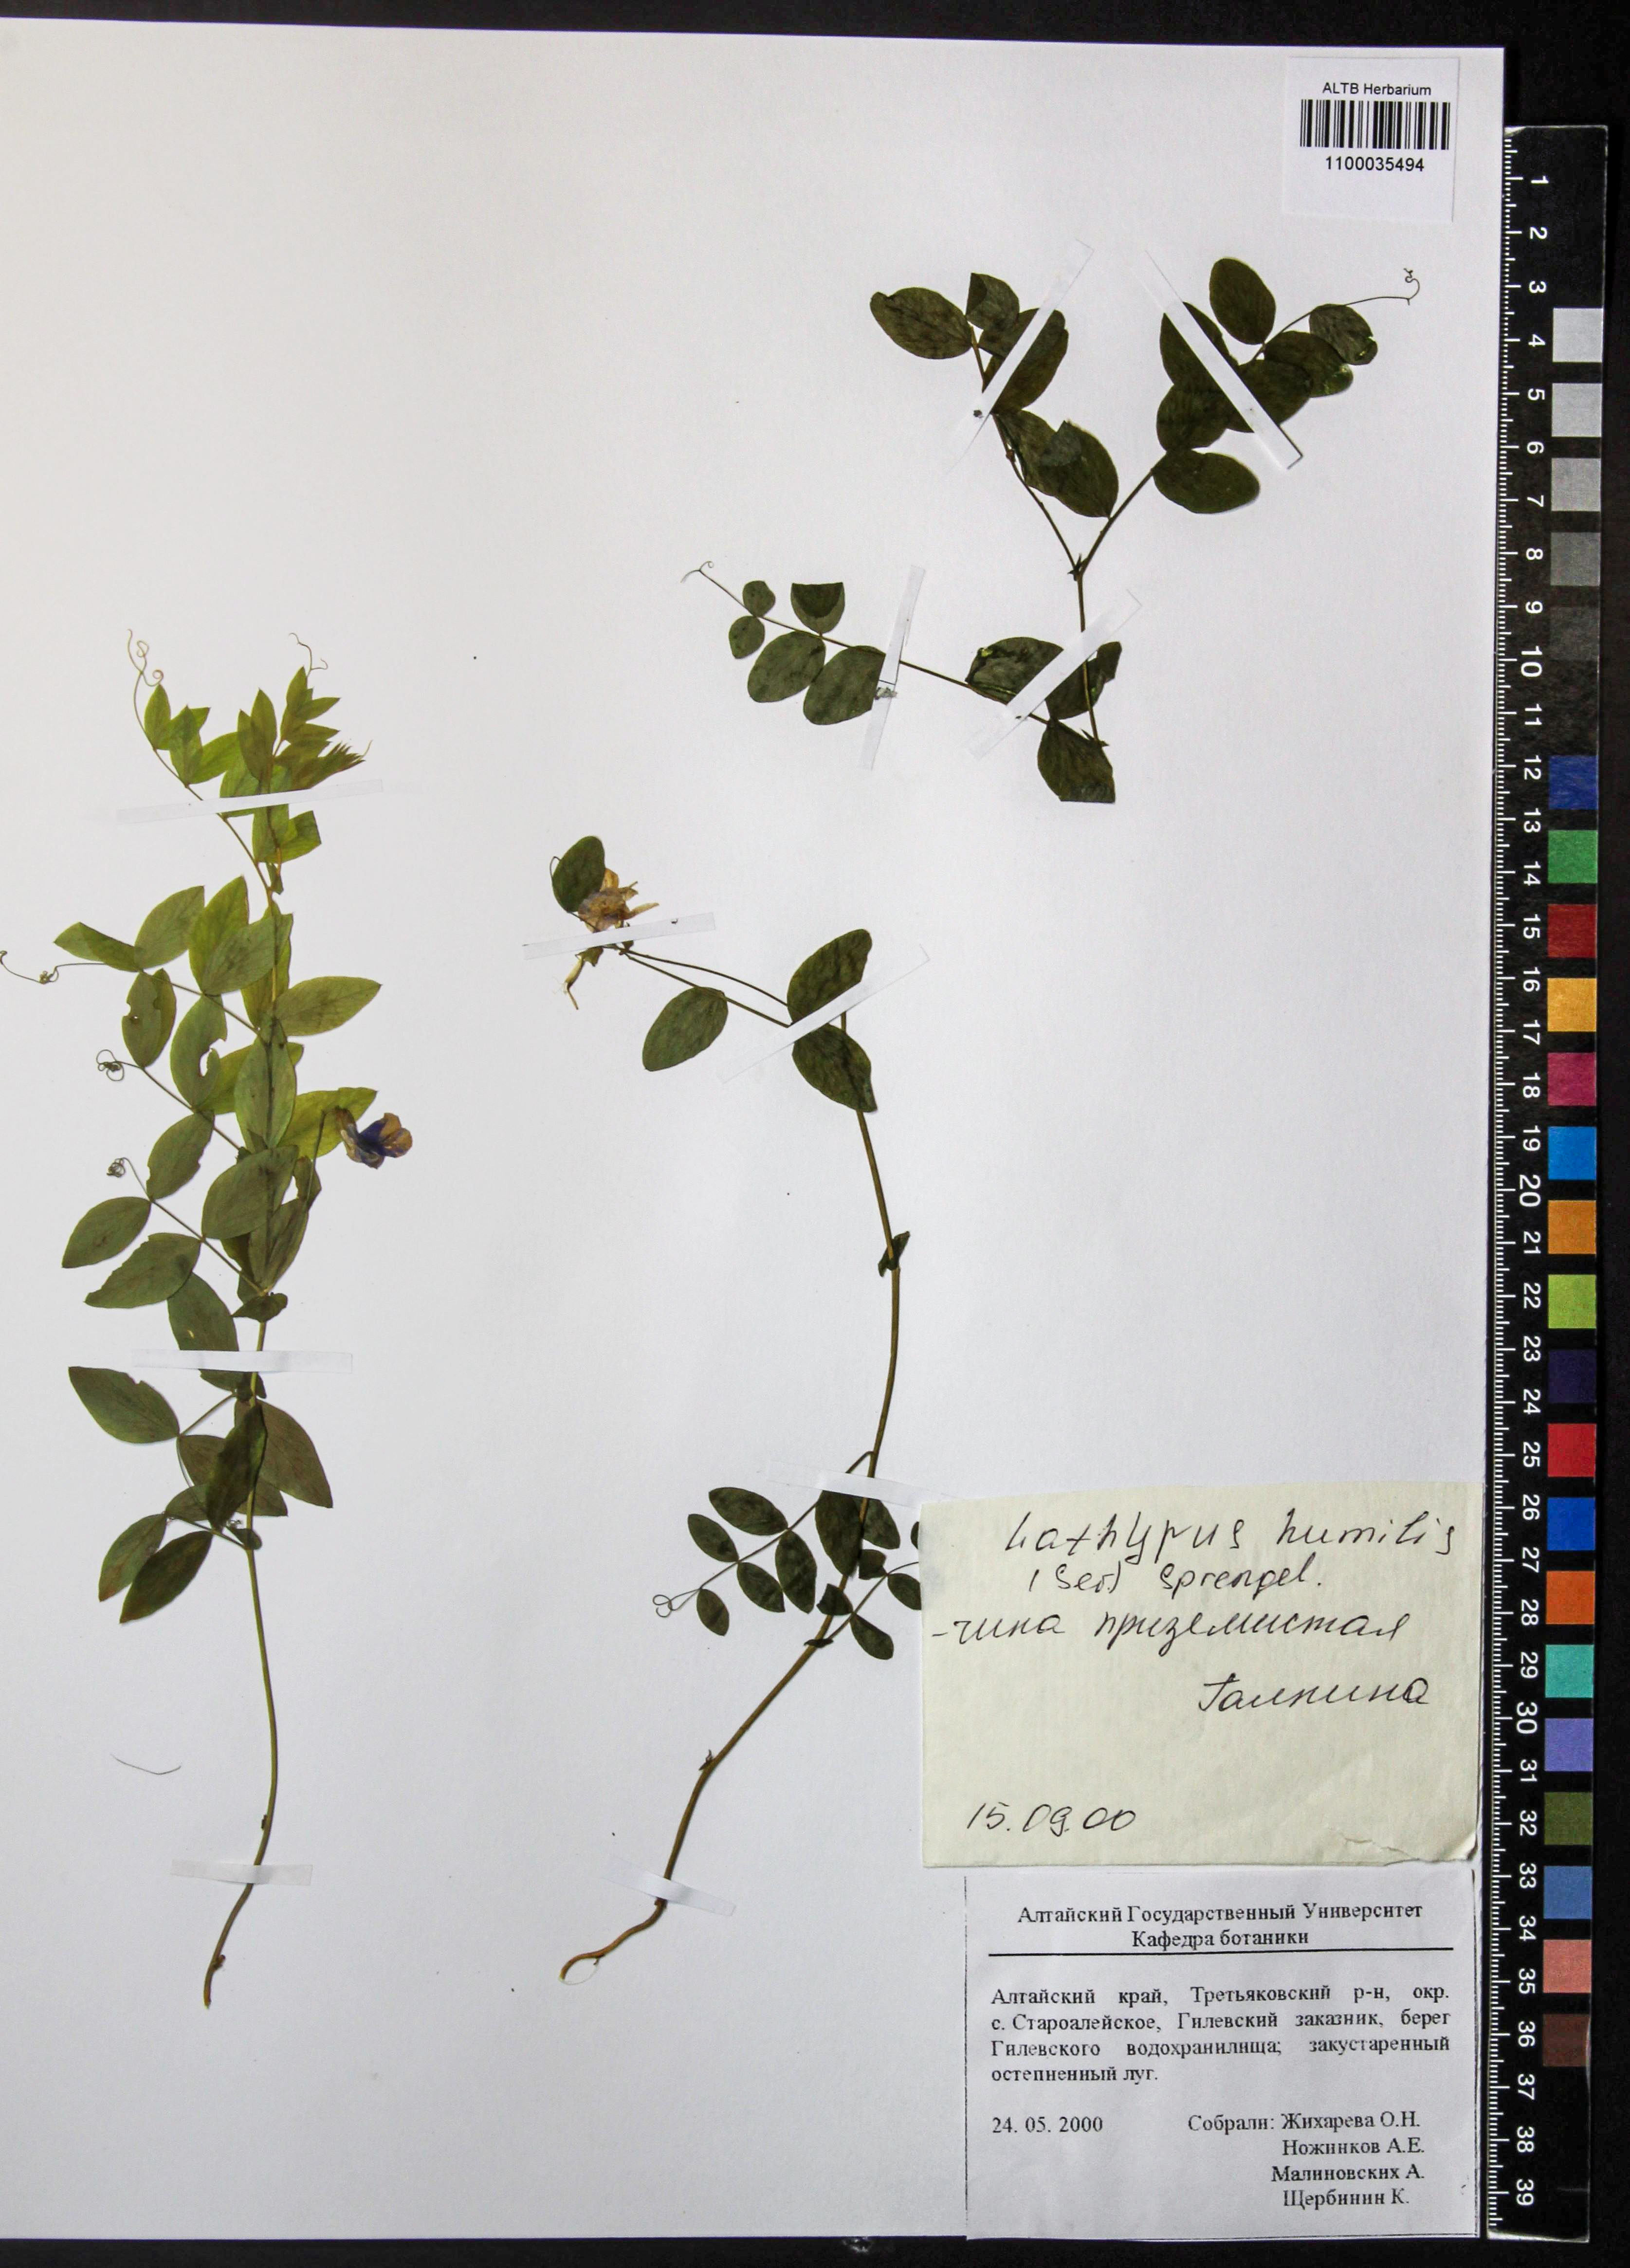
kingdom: Plantae
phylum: Tracheophyta
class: Magnoliopsida
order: Fabales
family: Fabaceae
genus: Lathyrus
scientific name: Lathyrus humilis
